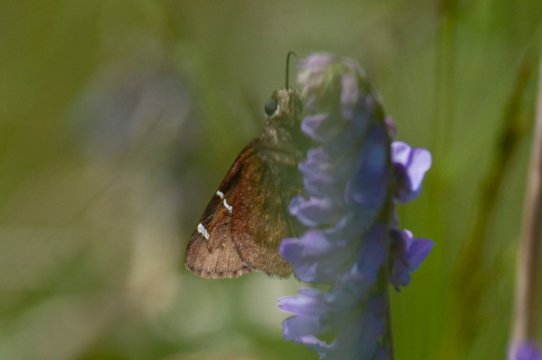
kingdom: Animalia
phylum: Arthropoda
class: Insecta
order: Lepidoptera
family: Hesperiidae
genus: Autochton
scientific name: Autochton
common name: Southern Cloudywing
